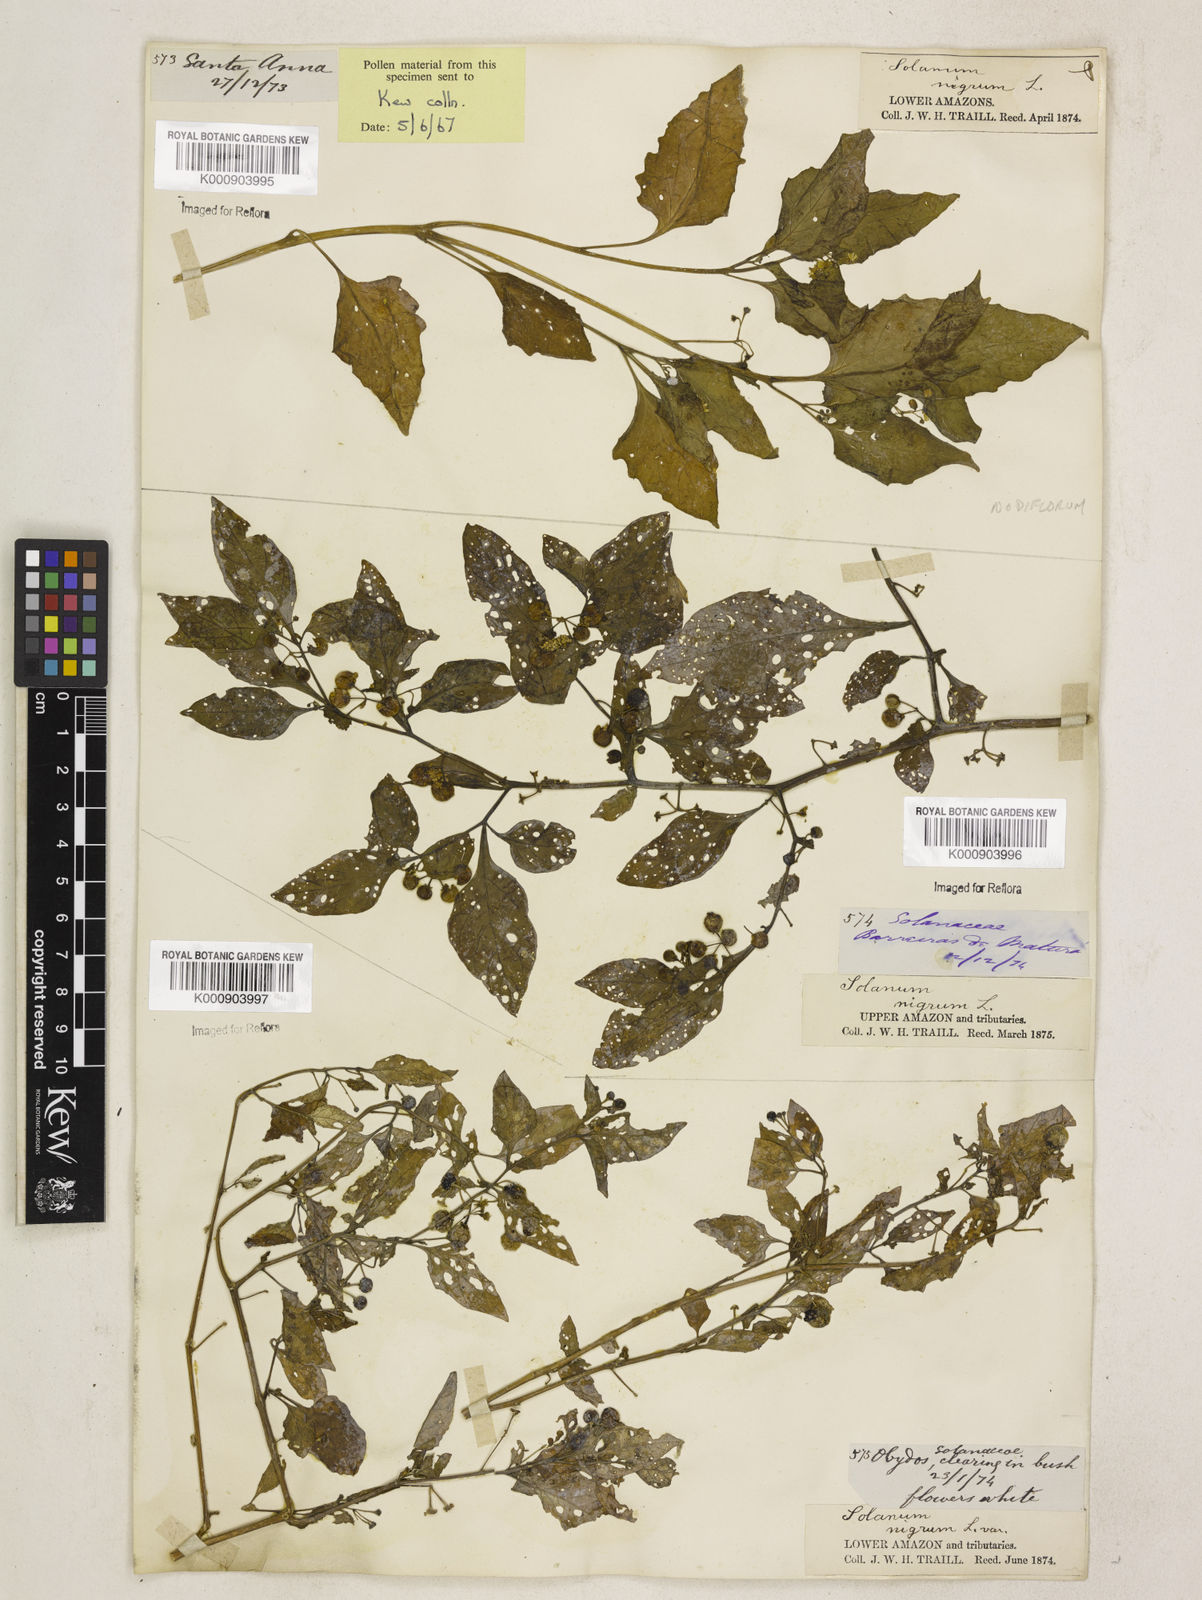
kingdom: Plantae
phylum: Tracheophyta
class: Magnoliopsida
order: Solanales
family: Solanaceae
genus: Solanum
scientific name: Solanum americanum
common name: American black nightshade
